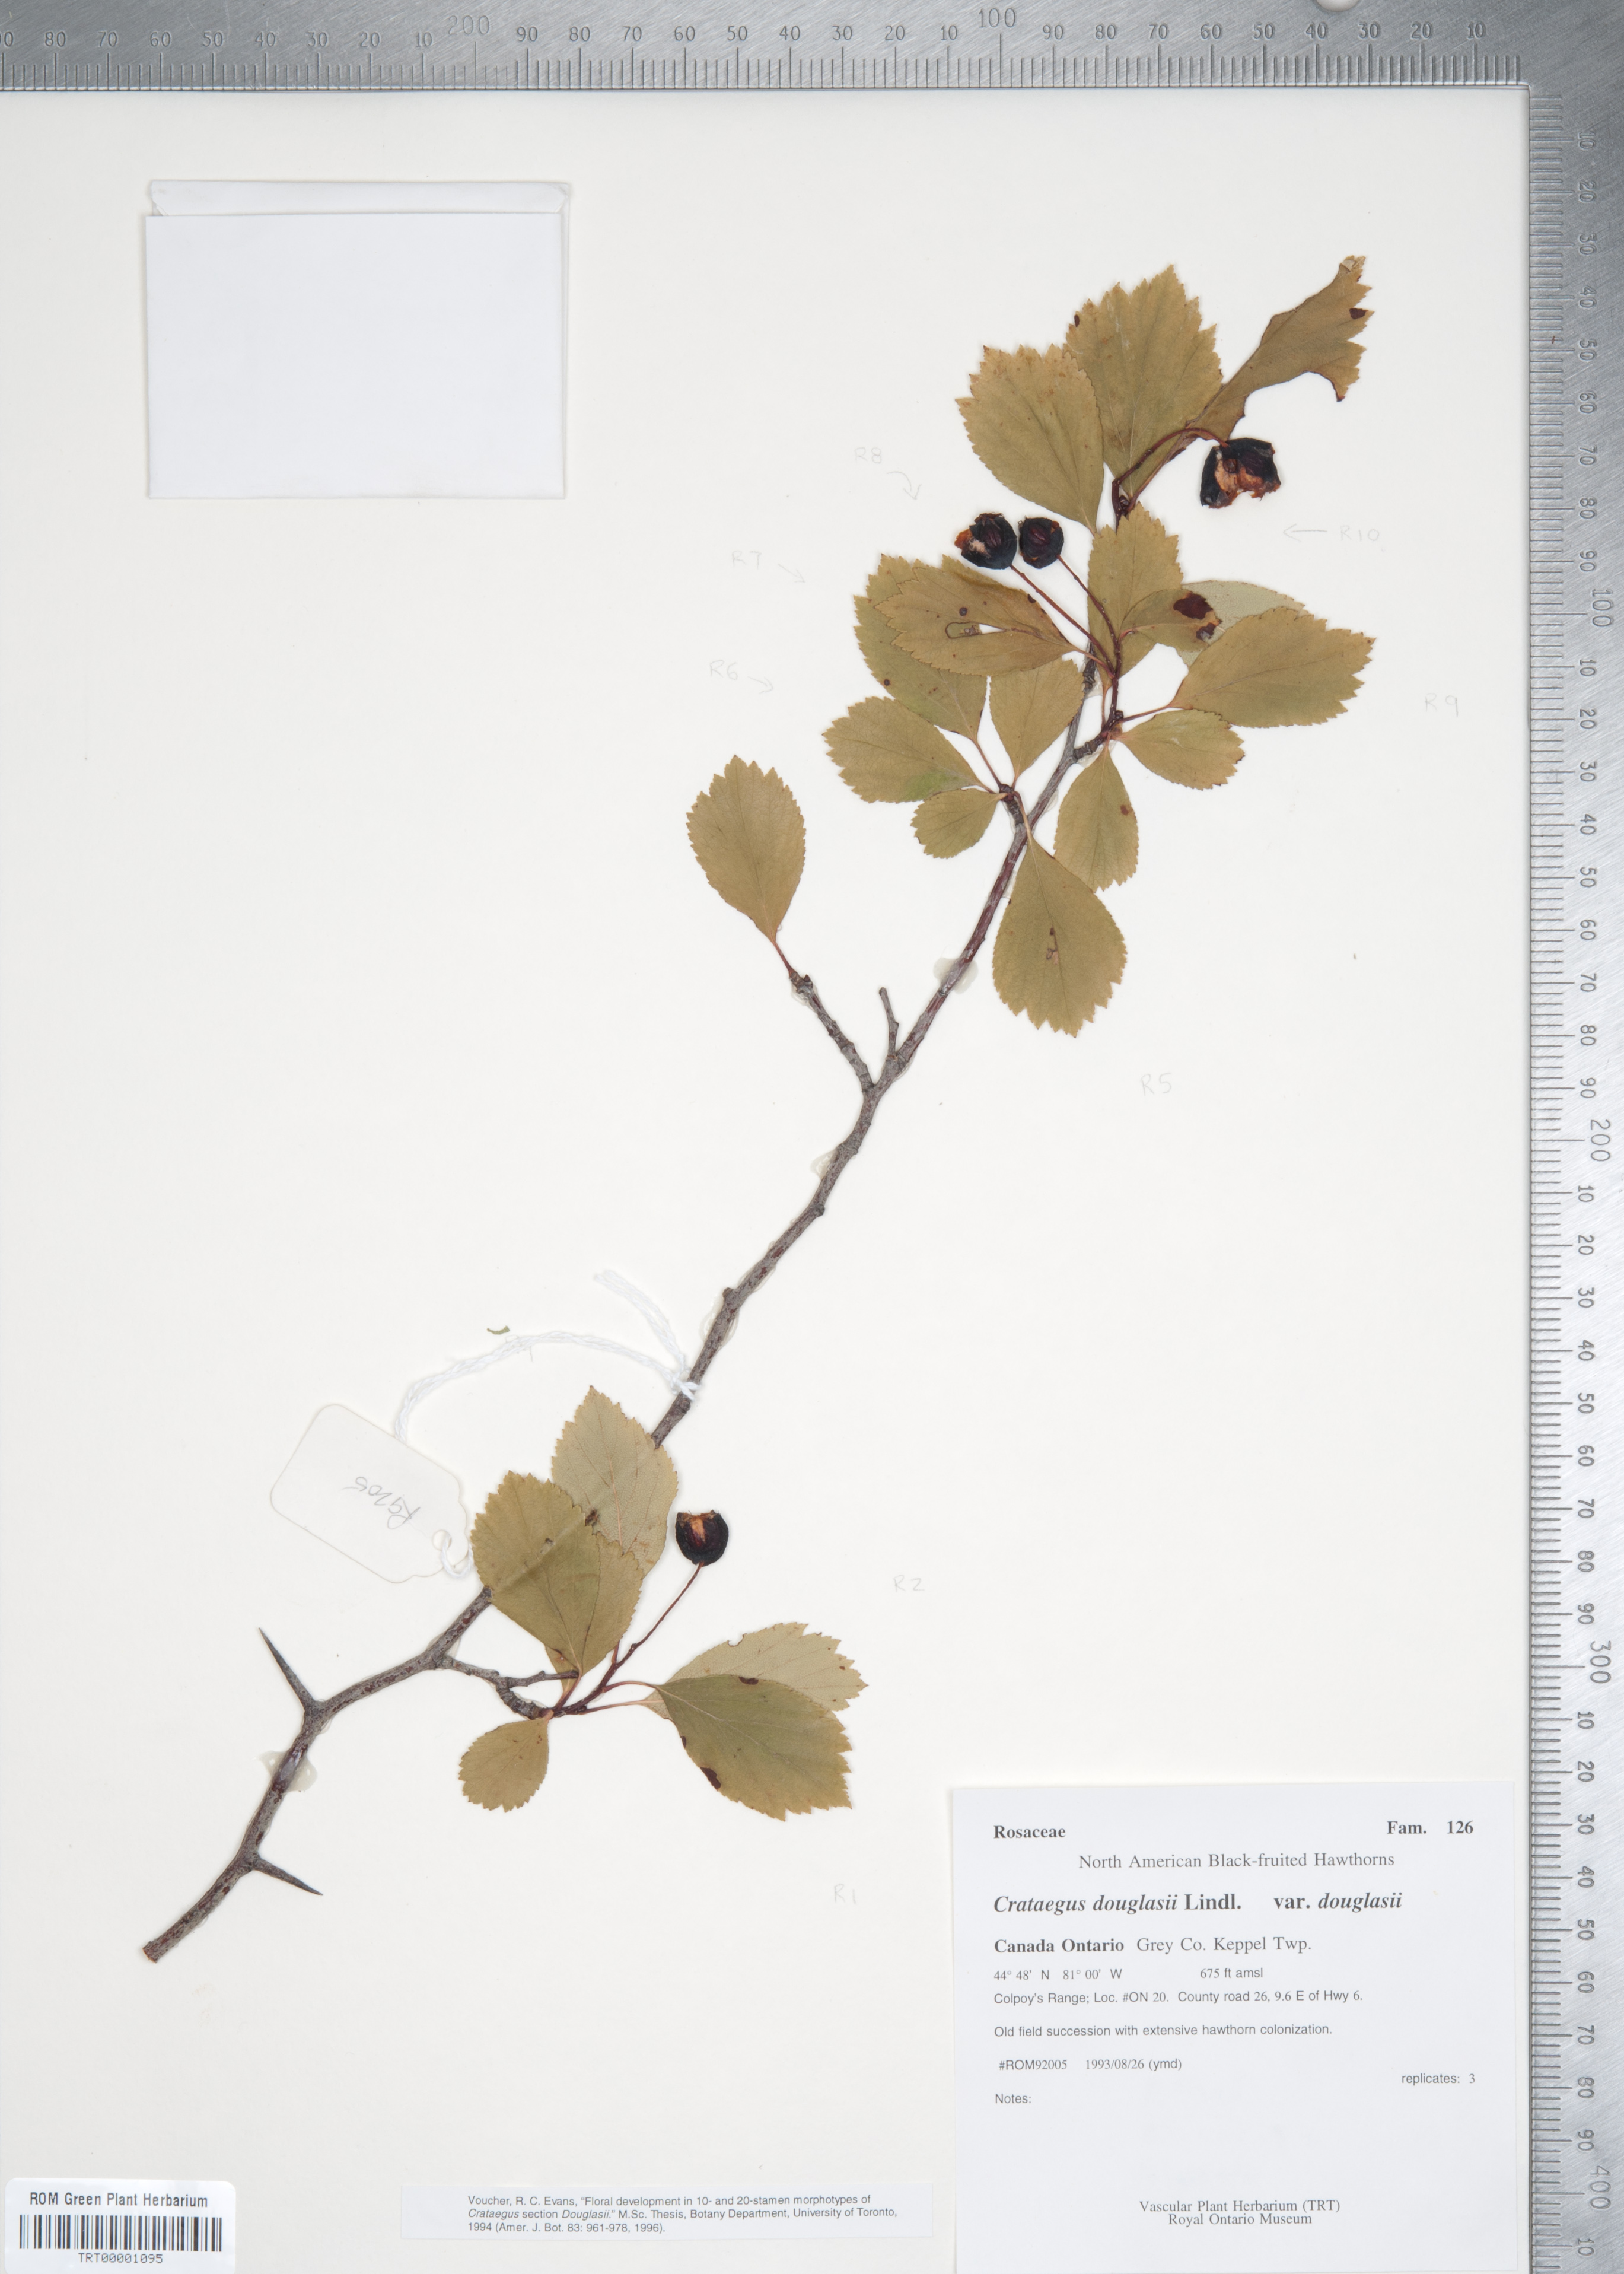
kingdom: Plantae
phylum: Tracheophyta
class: Magnoliopsida
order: Rosales
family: Rosaceae
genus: Crataegus
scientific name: Crataegus douglasii
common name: Black hawthorn
